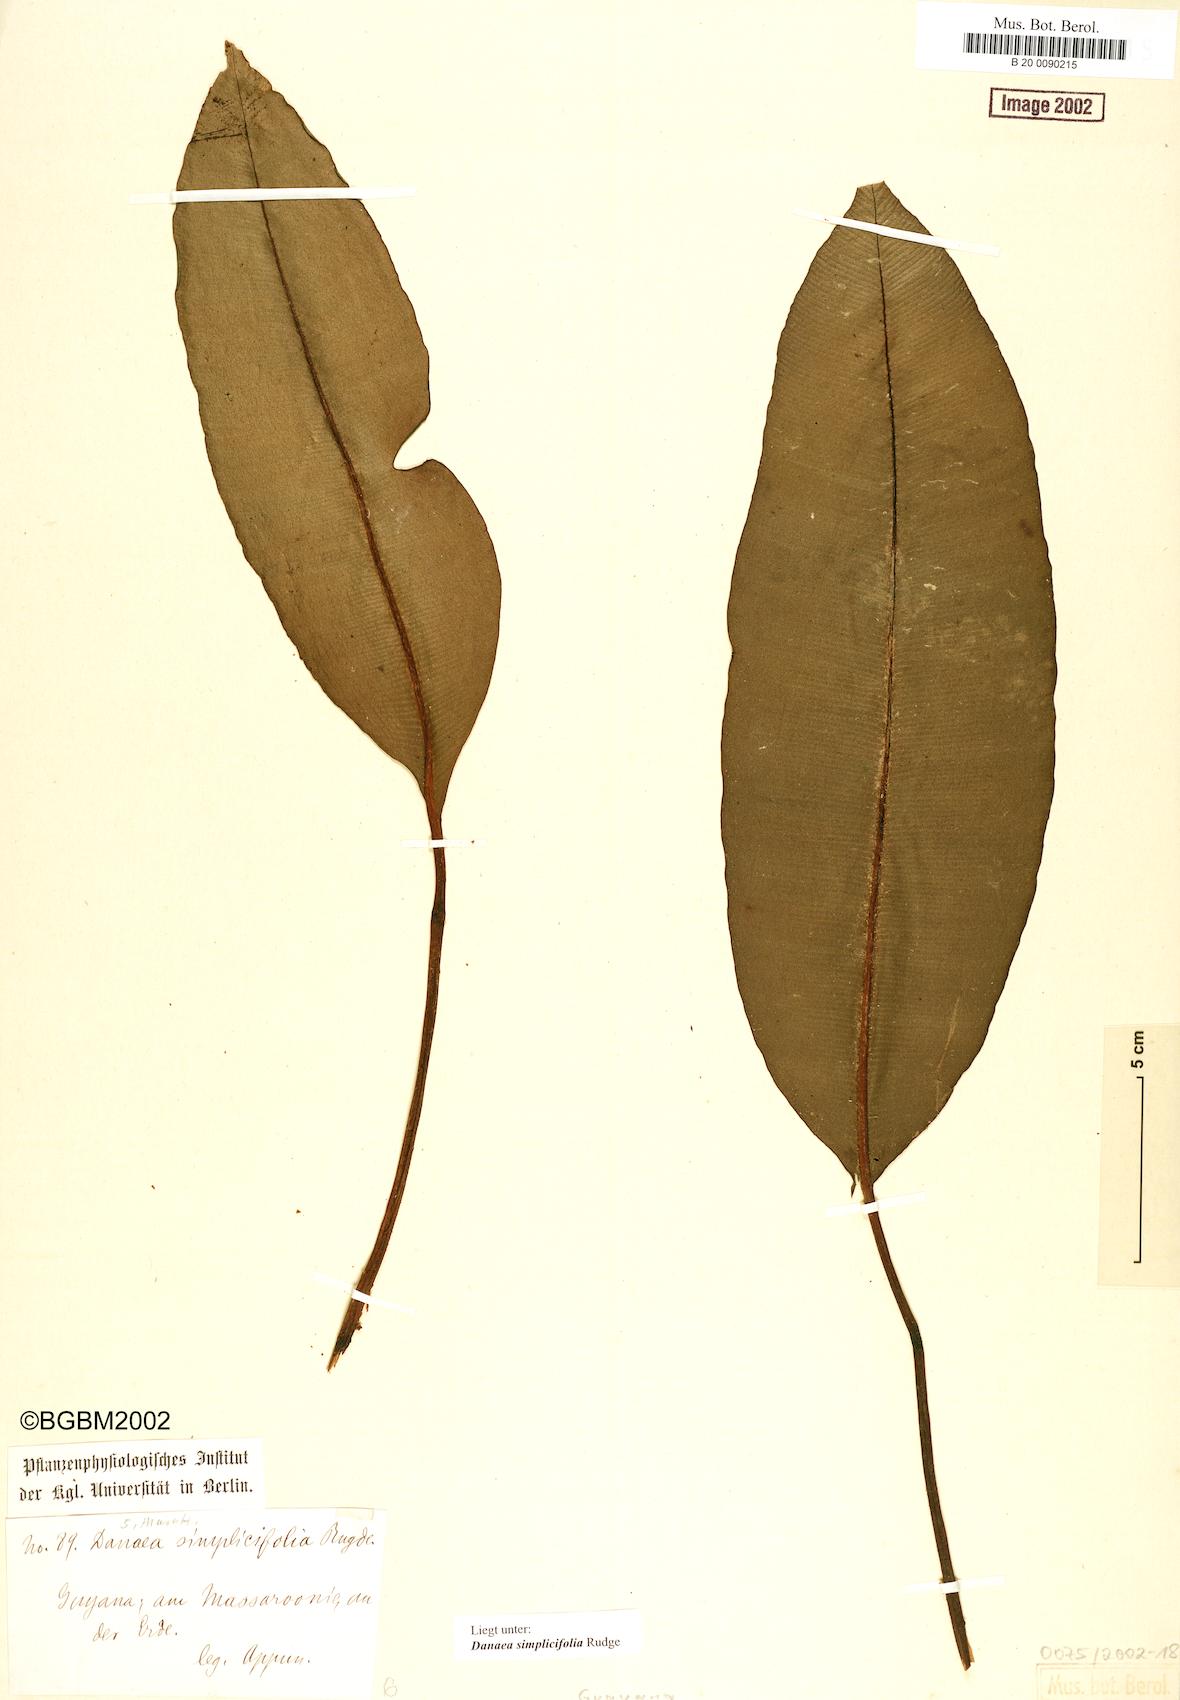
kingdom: Plantae
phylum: Tracheophyta
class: Polypodiopsida
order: Marattiales
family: Marattiaceae
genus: Danaea
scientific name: Danaea simplicifolia
